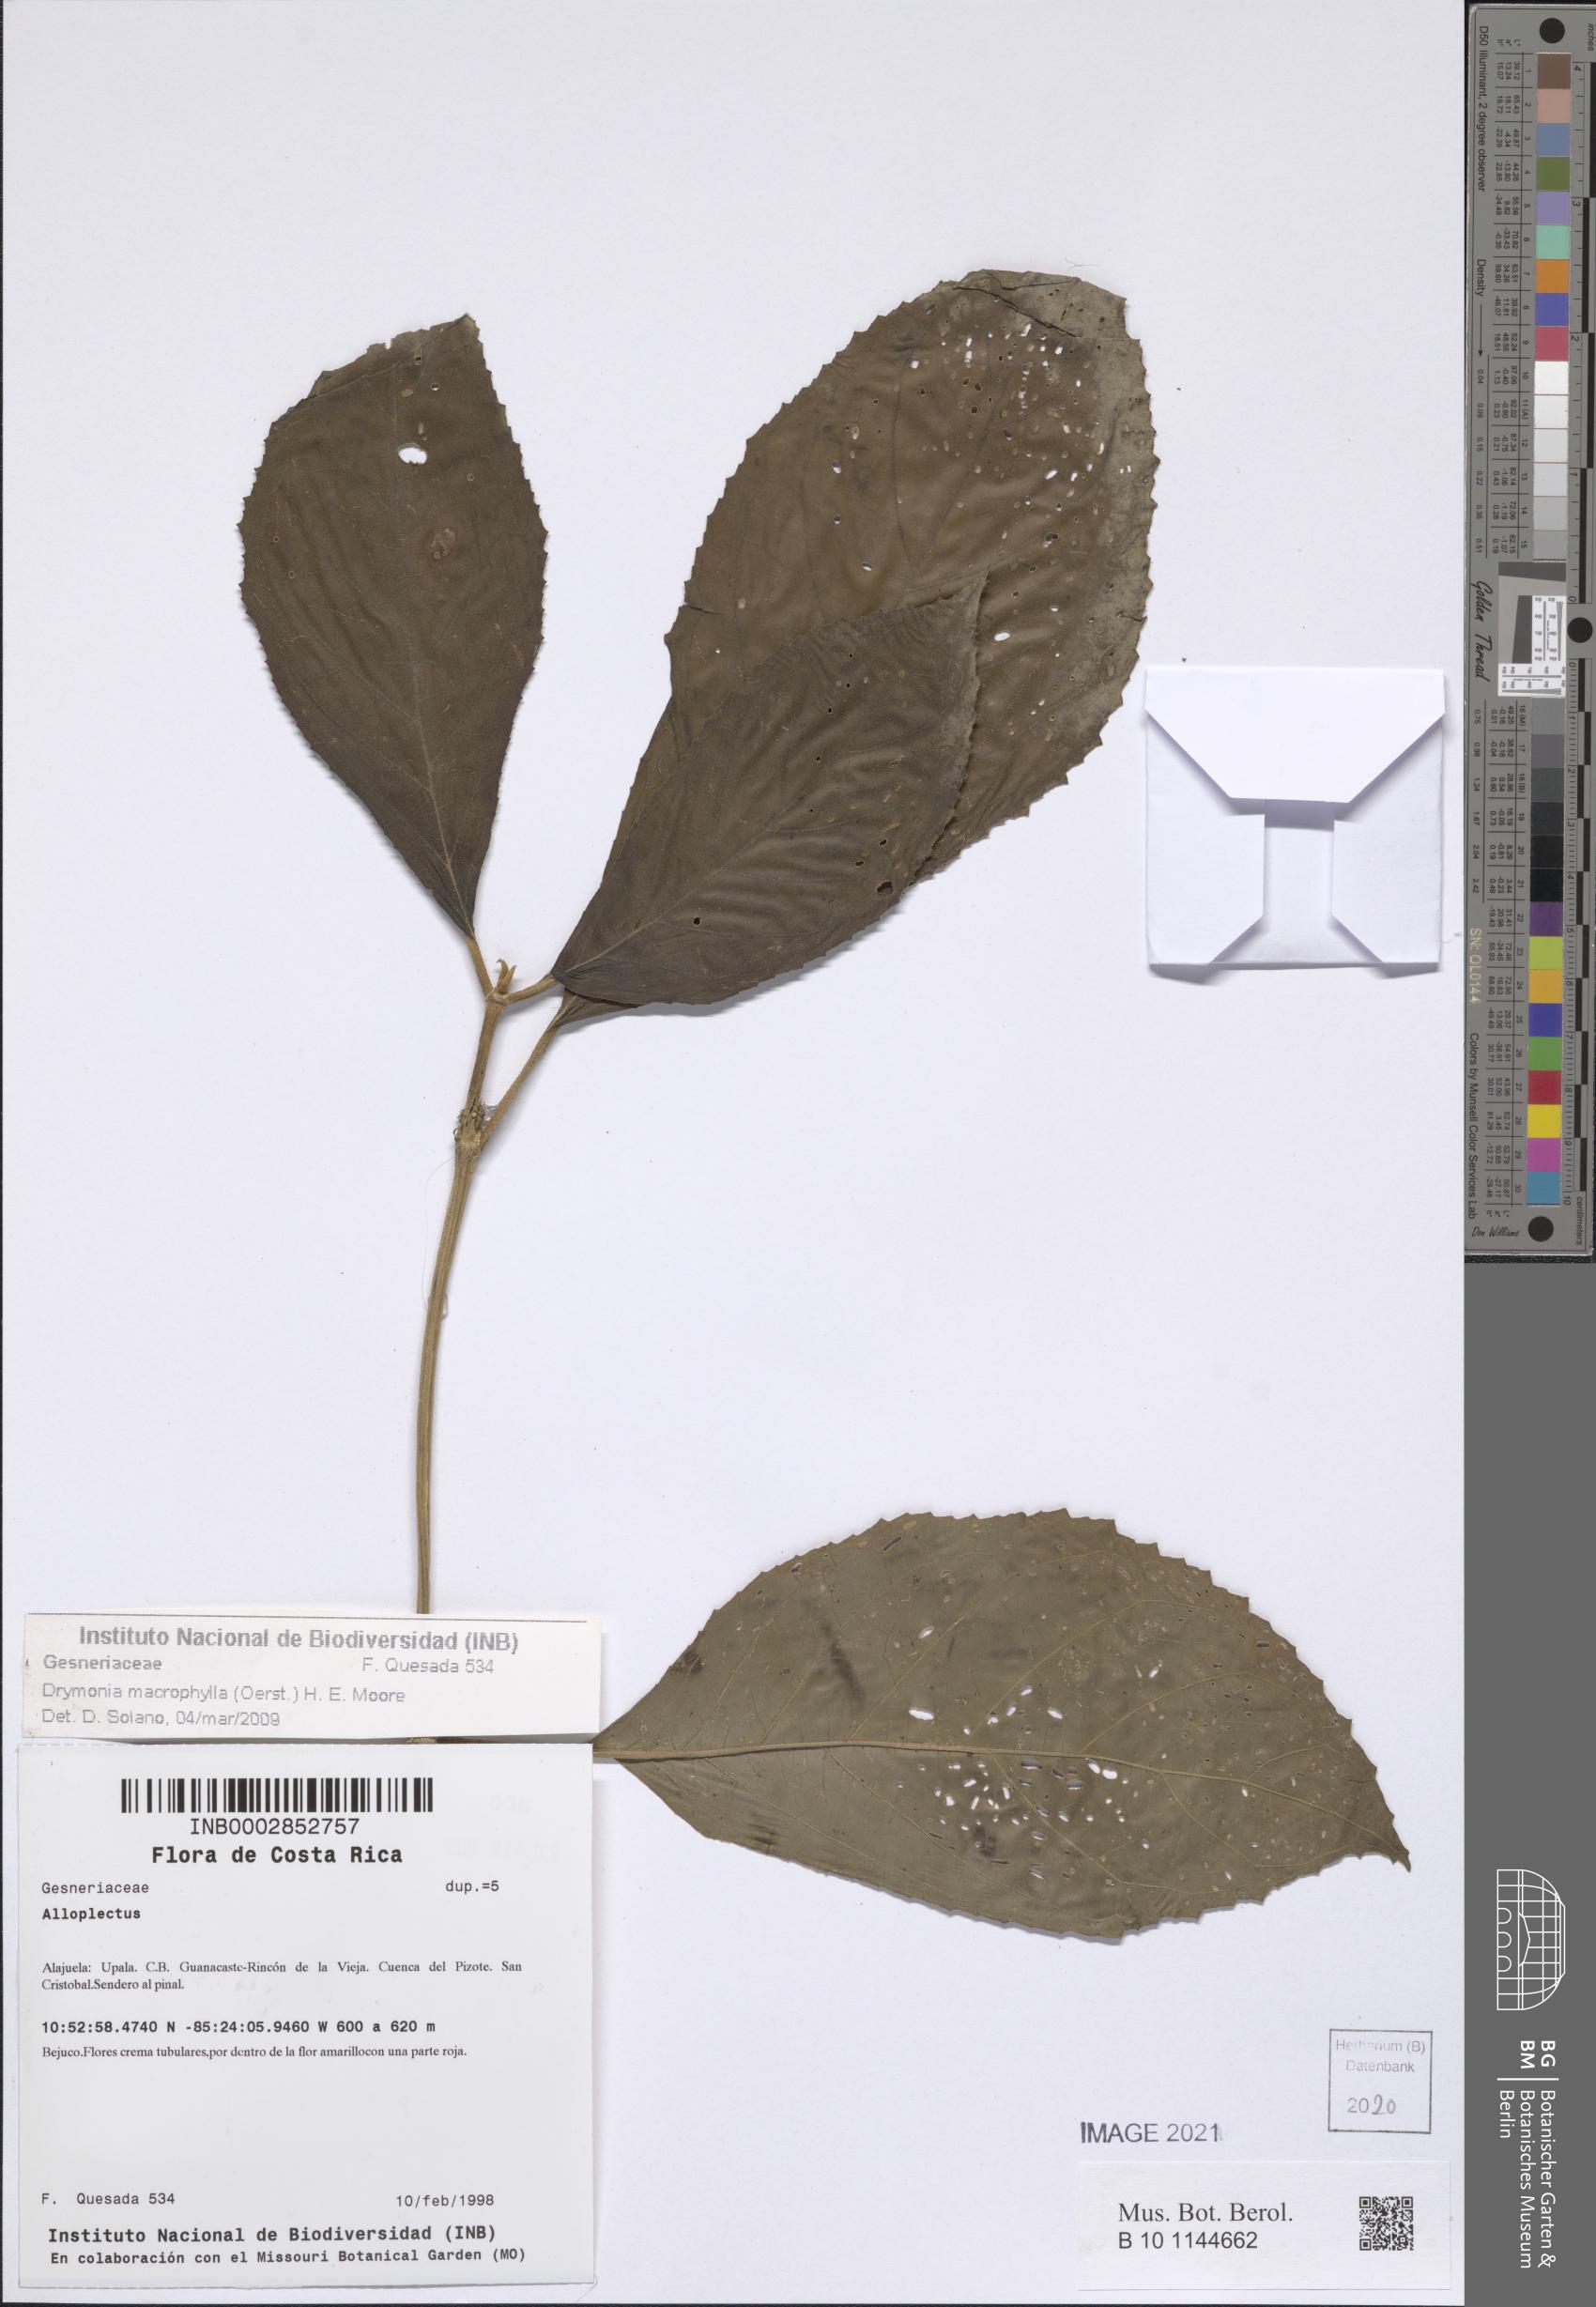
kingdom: Plantae
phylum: Tracheophyta
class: Magnoliopsida
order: Lamiales
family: Gesneriaceae
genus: Drymonia
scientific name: Drymonia macrophylla
